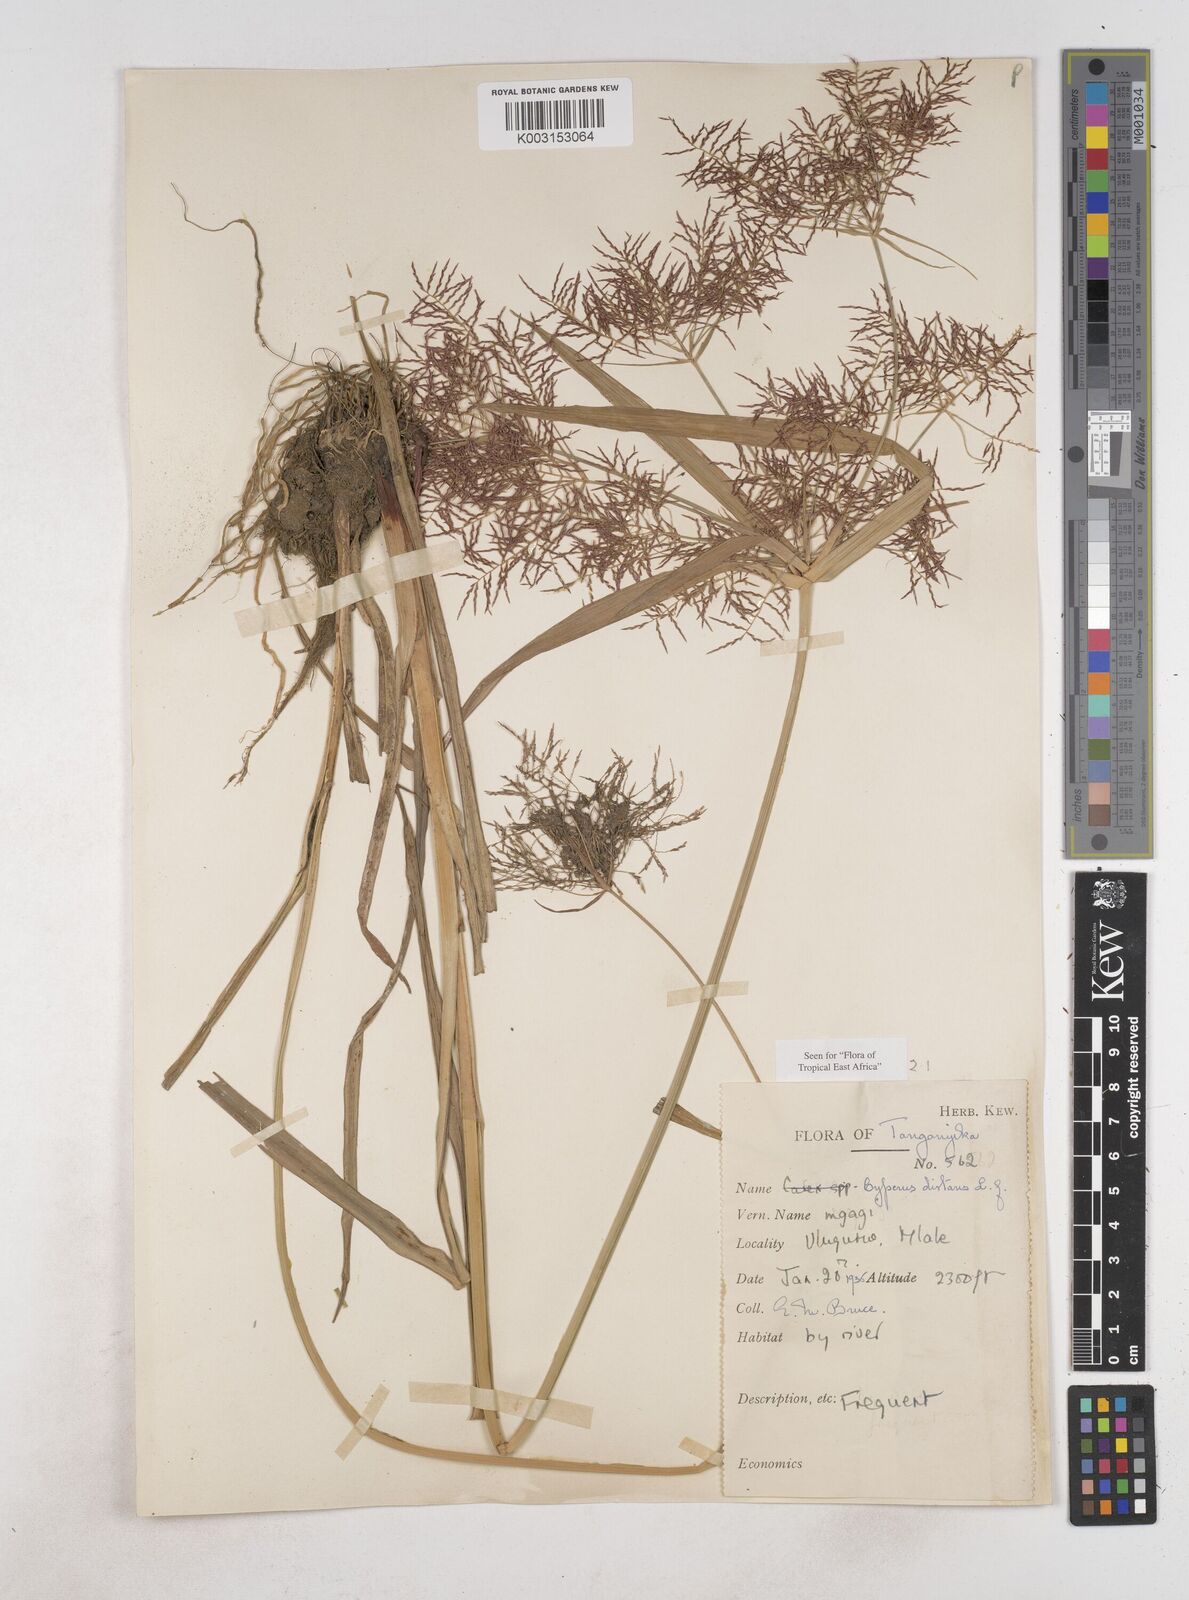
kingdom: Plantae
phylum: Tracheophyta
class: Liliopsida
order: Poales
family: Cyperaceae
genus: Cyperus
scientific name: Cyperus distans
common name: Slender cyperus
